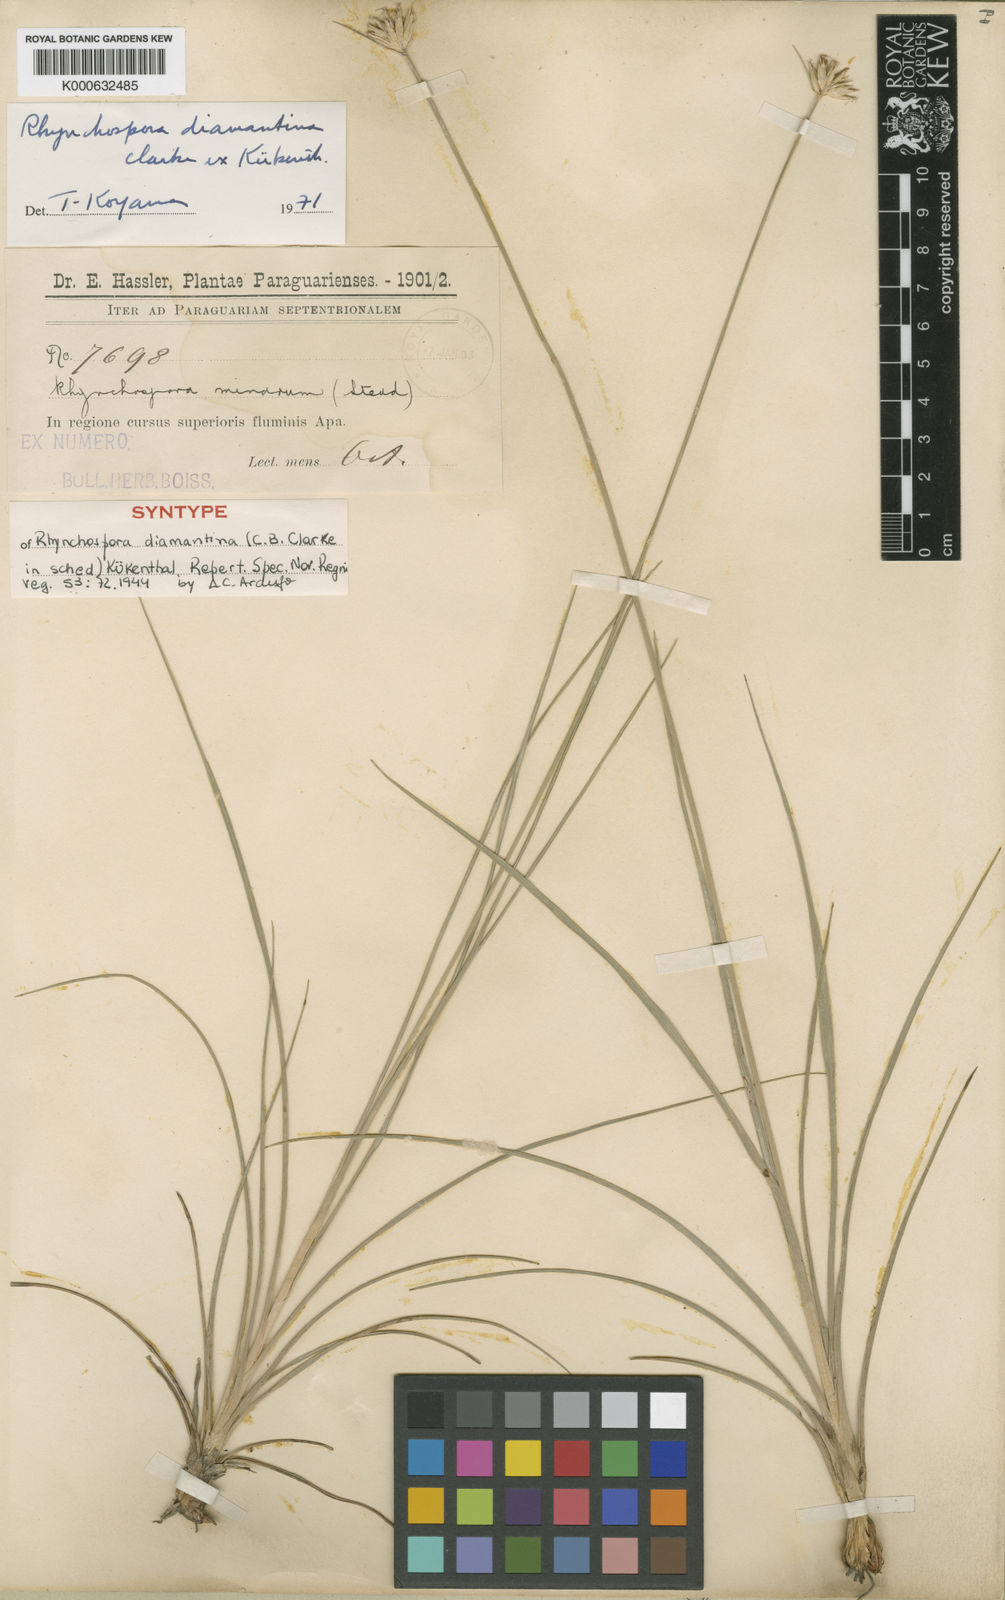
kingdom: Plantae
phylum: Tracheophyta
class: Liliopsida
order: Poales
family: Cyperaceae
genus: Rhynchospora
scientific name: Rhynchospora
